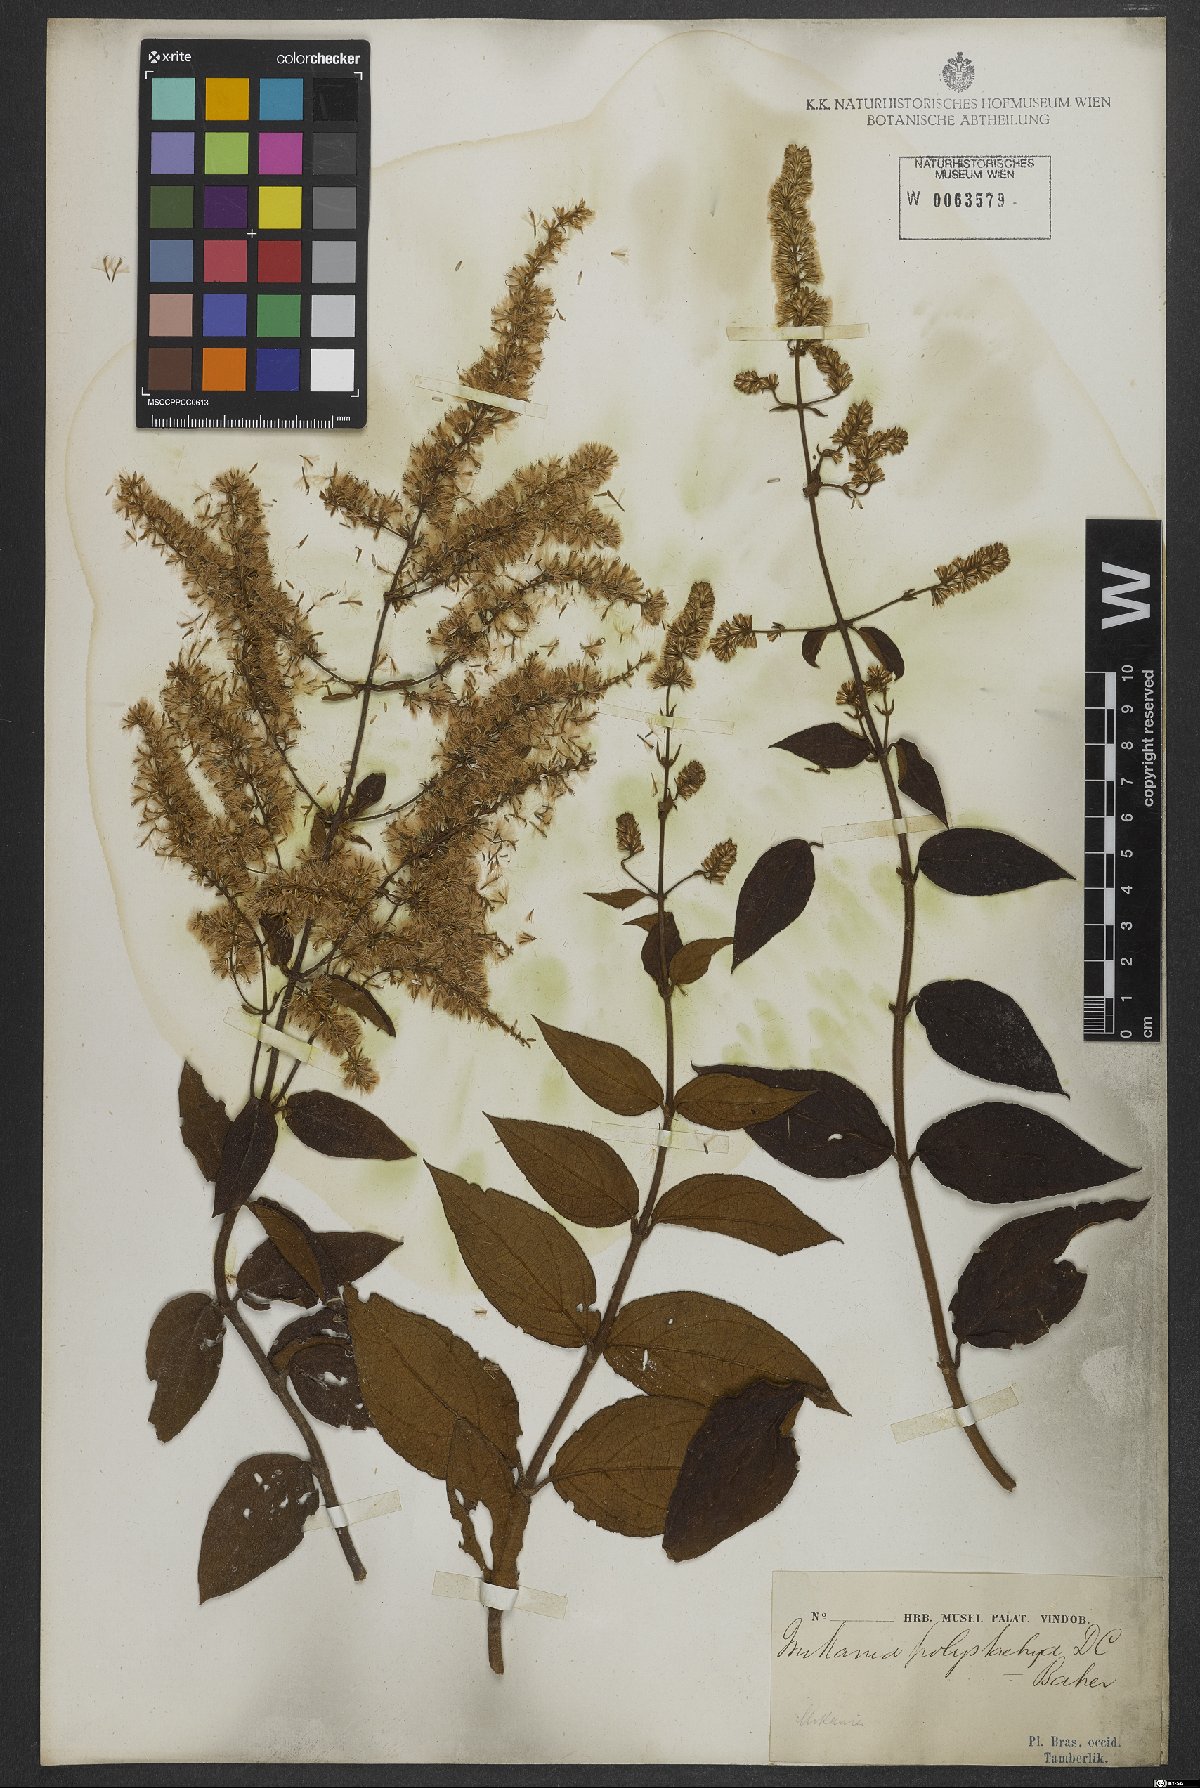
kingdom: Plantae
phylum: Tracheophyta
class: Magnoliopsida
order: Asterales
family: Asteraceae
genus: Mikania
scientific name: Mikania psilostachya
